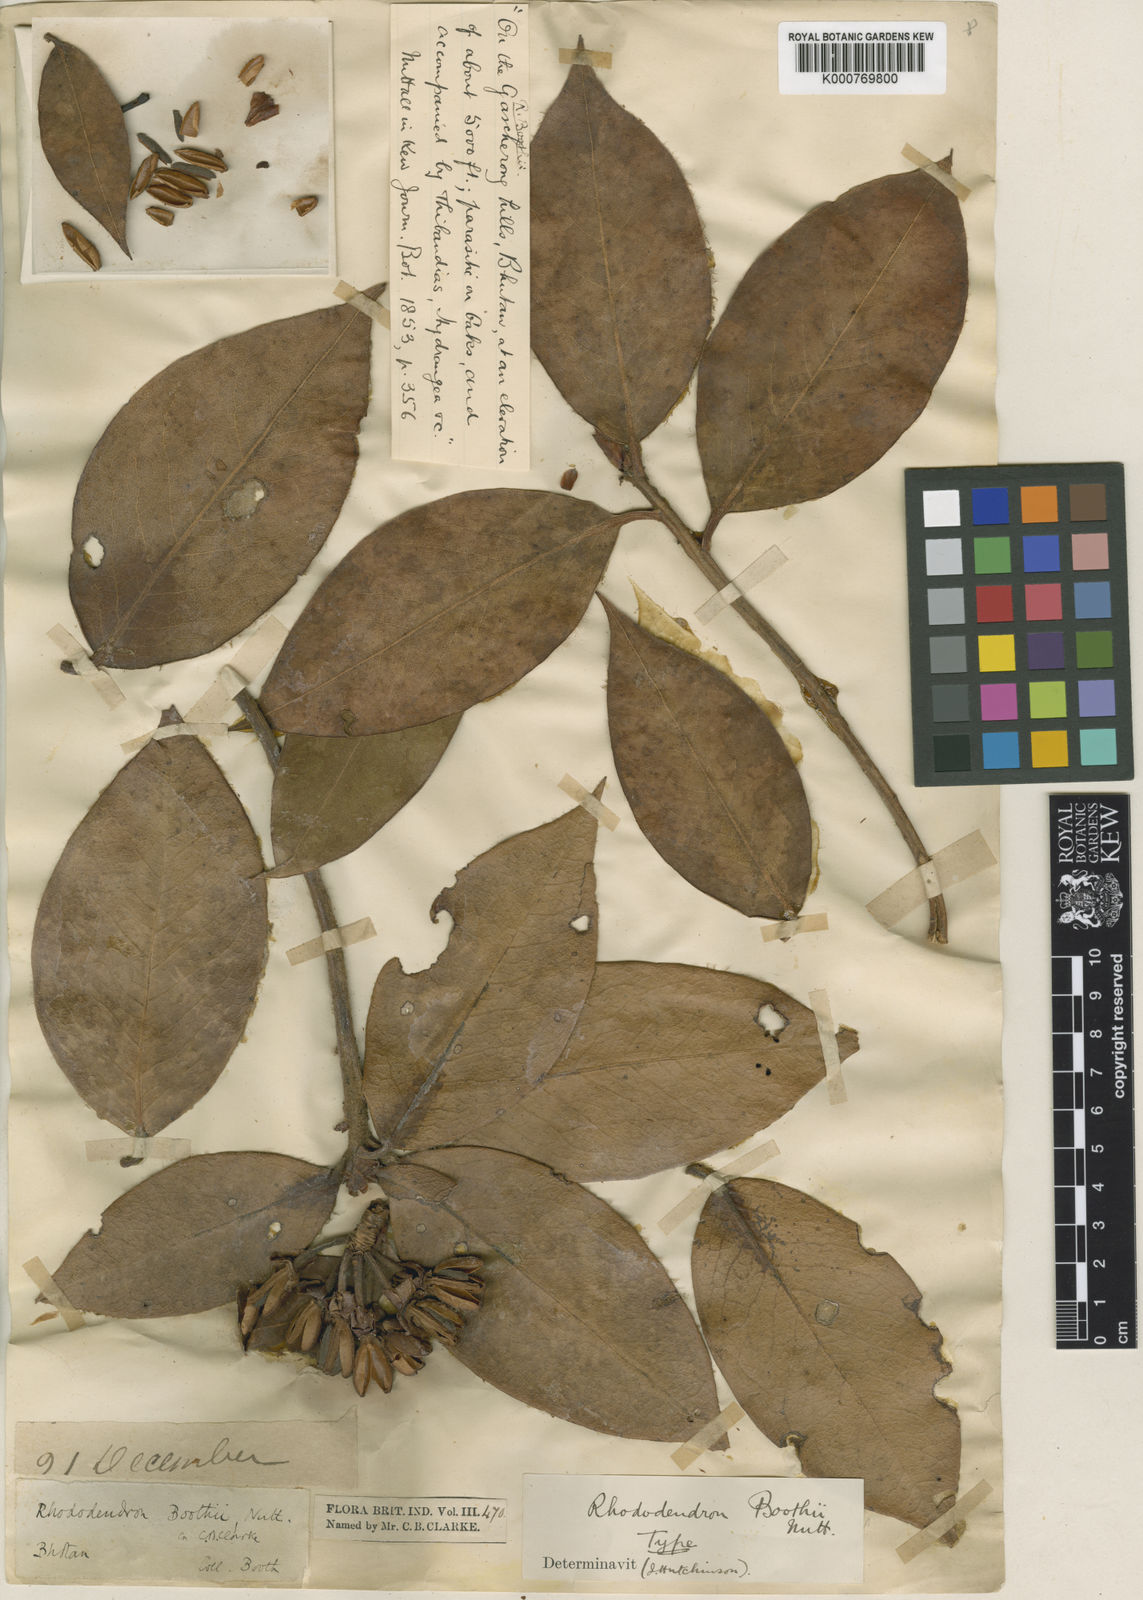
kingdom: Plantae
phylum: Tracheophyta
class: Magnoliopsida
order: Ericales
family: Ericaceae
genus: Rhododendron
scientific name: Rhododendron boothii
